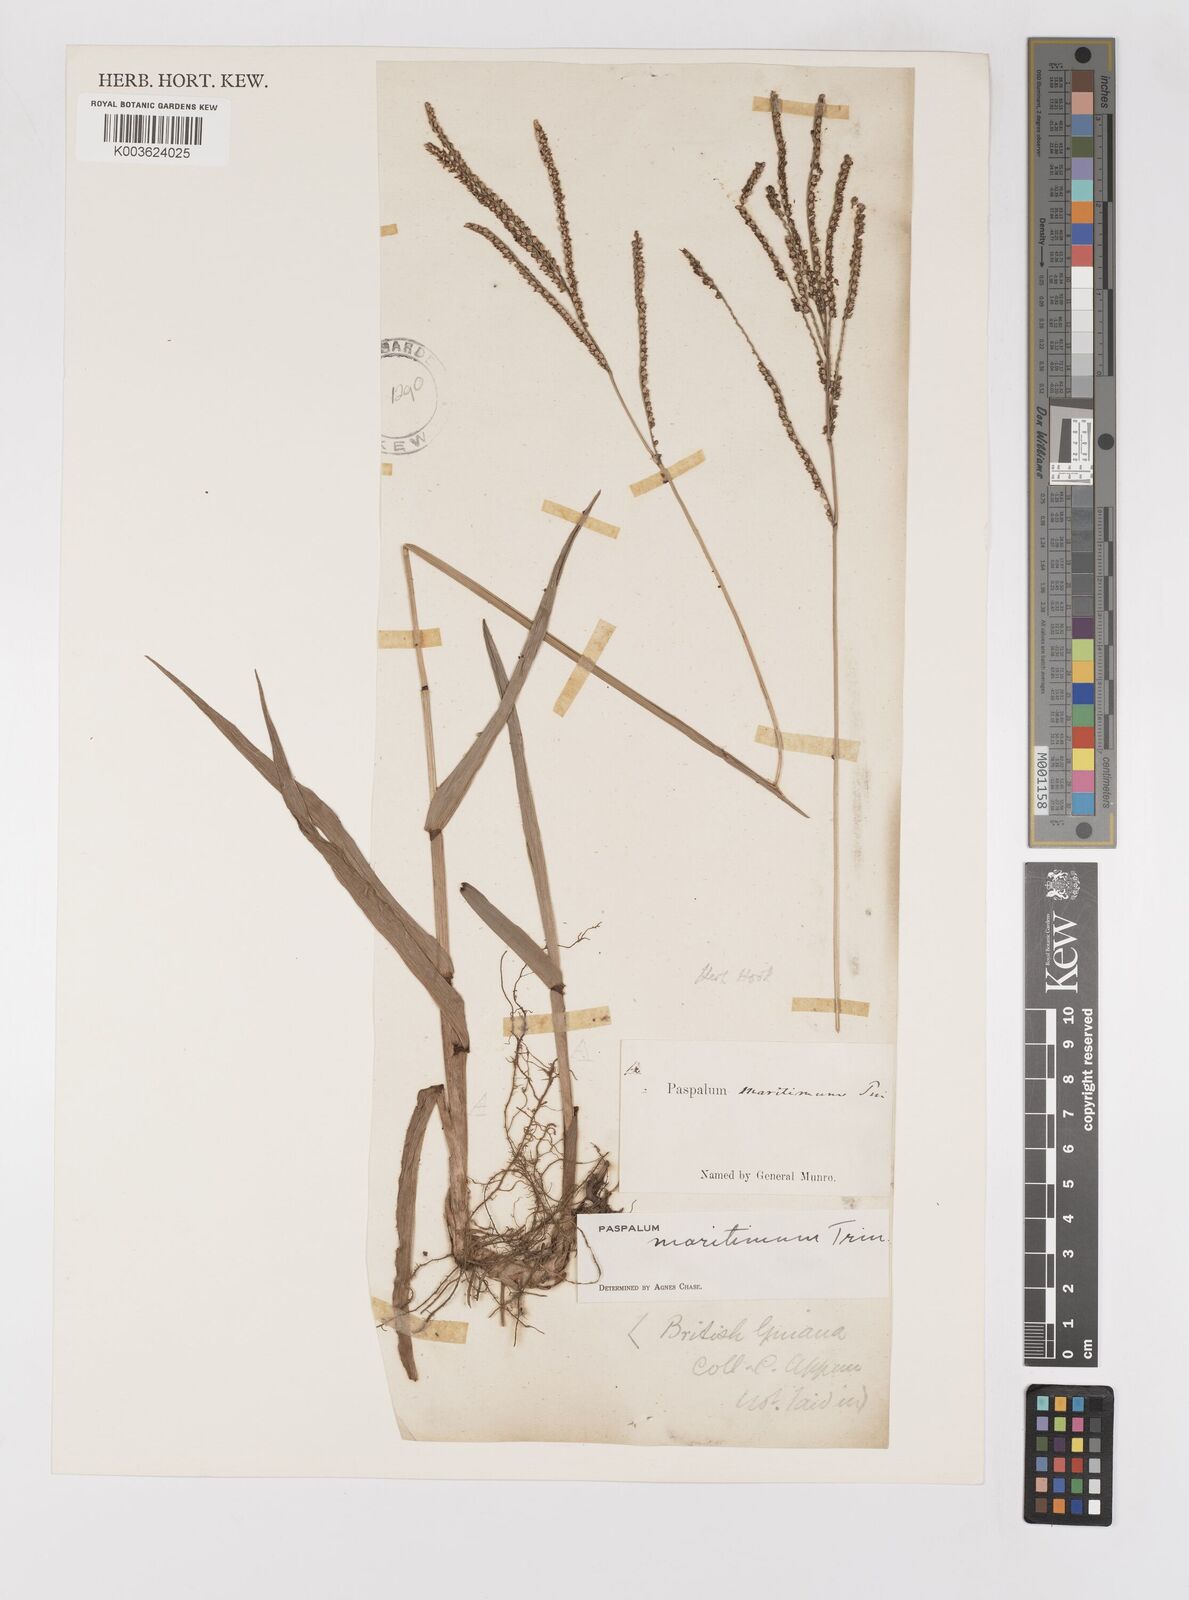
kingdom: Plantae
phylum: Tracheophyta
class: Liliopsida
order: Poales
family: Poaceae
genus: Paspalum
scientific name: Paspalum maritimum
